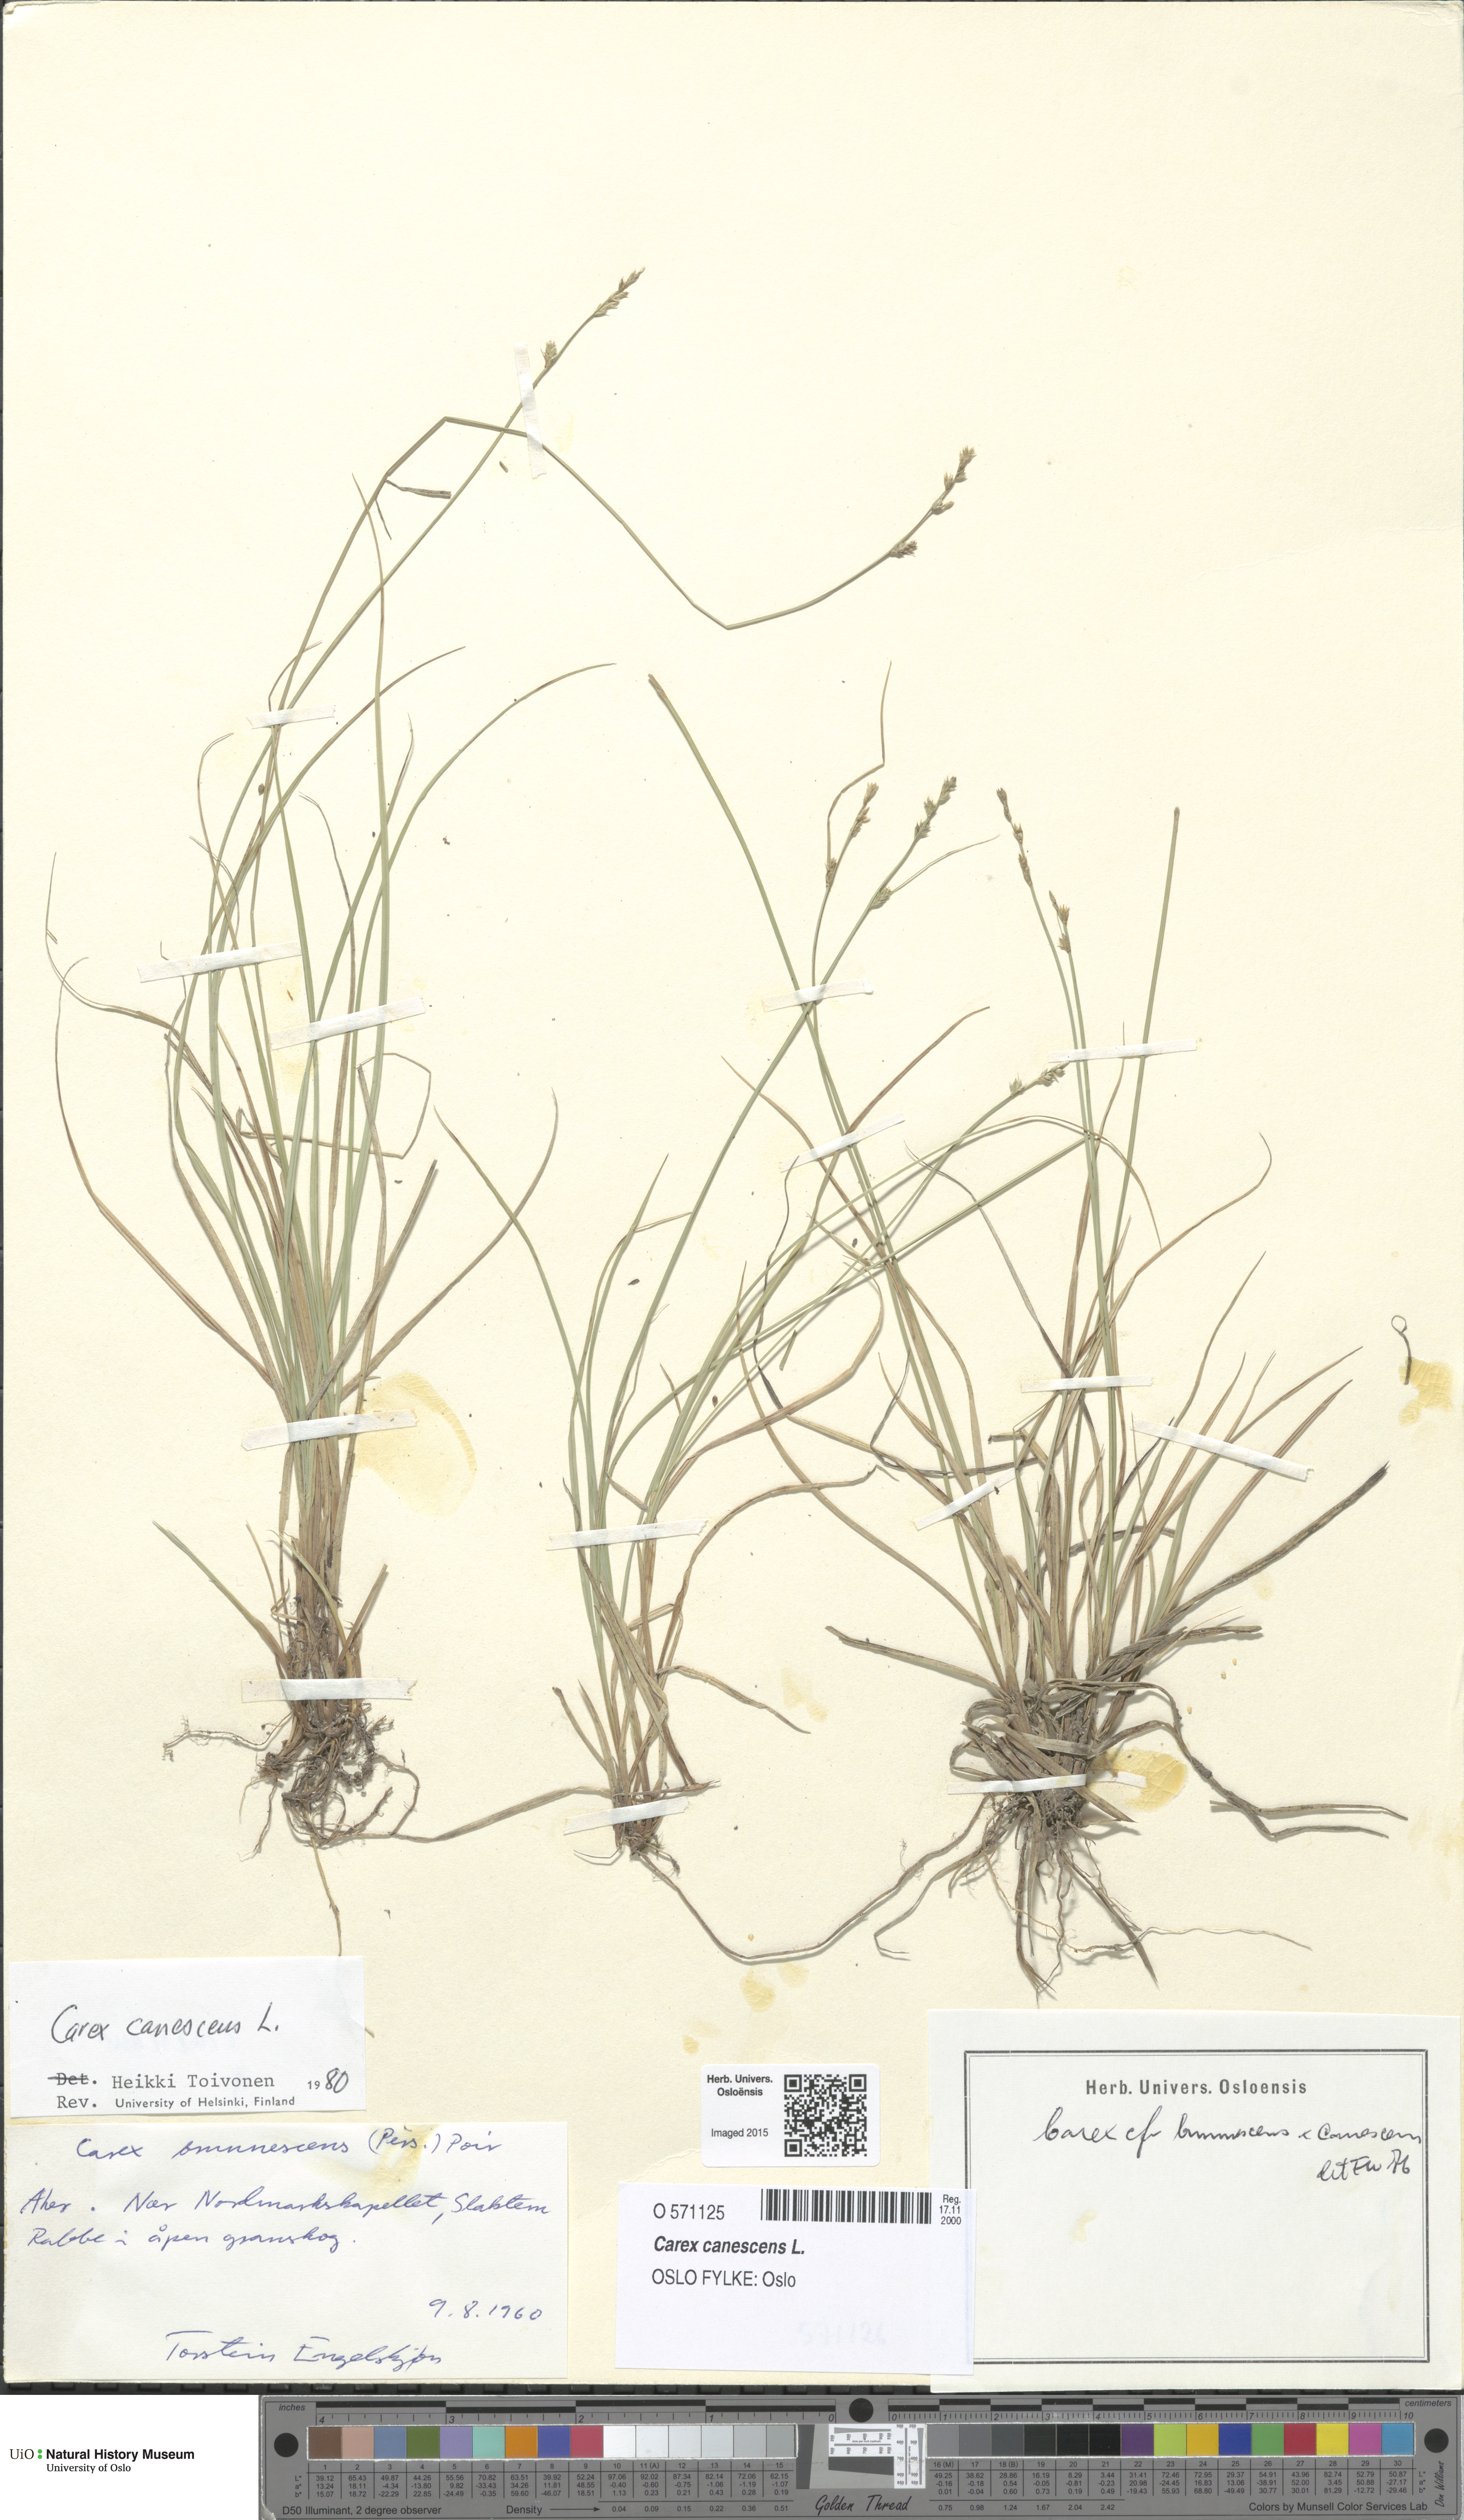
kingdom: Plantae
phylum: Tracheophyta
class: Liliopsida
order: Poales
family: Cyperaceae
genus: Carex
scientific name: Carex canescens
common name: White sedge
